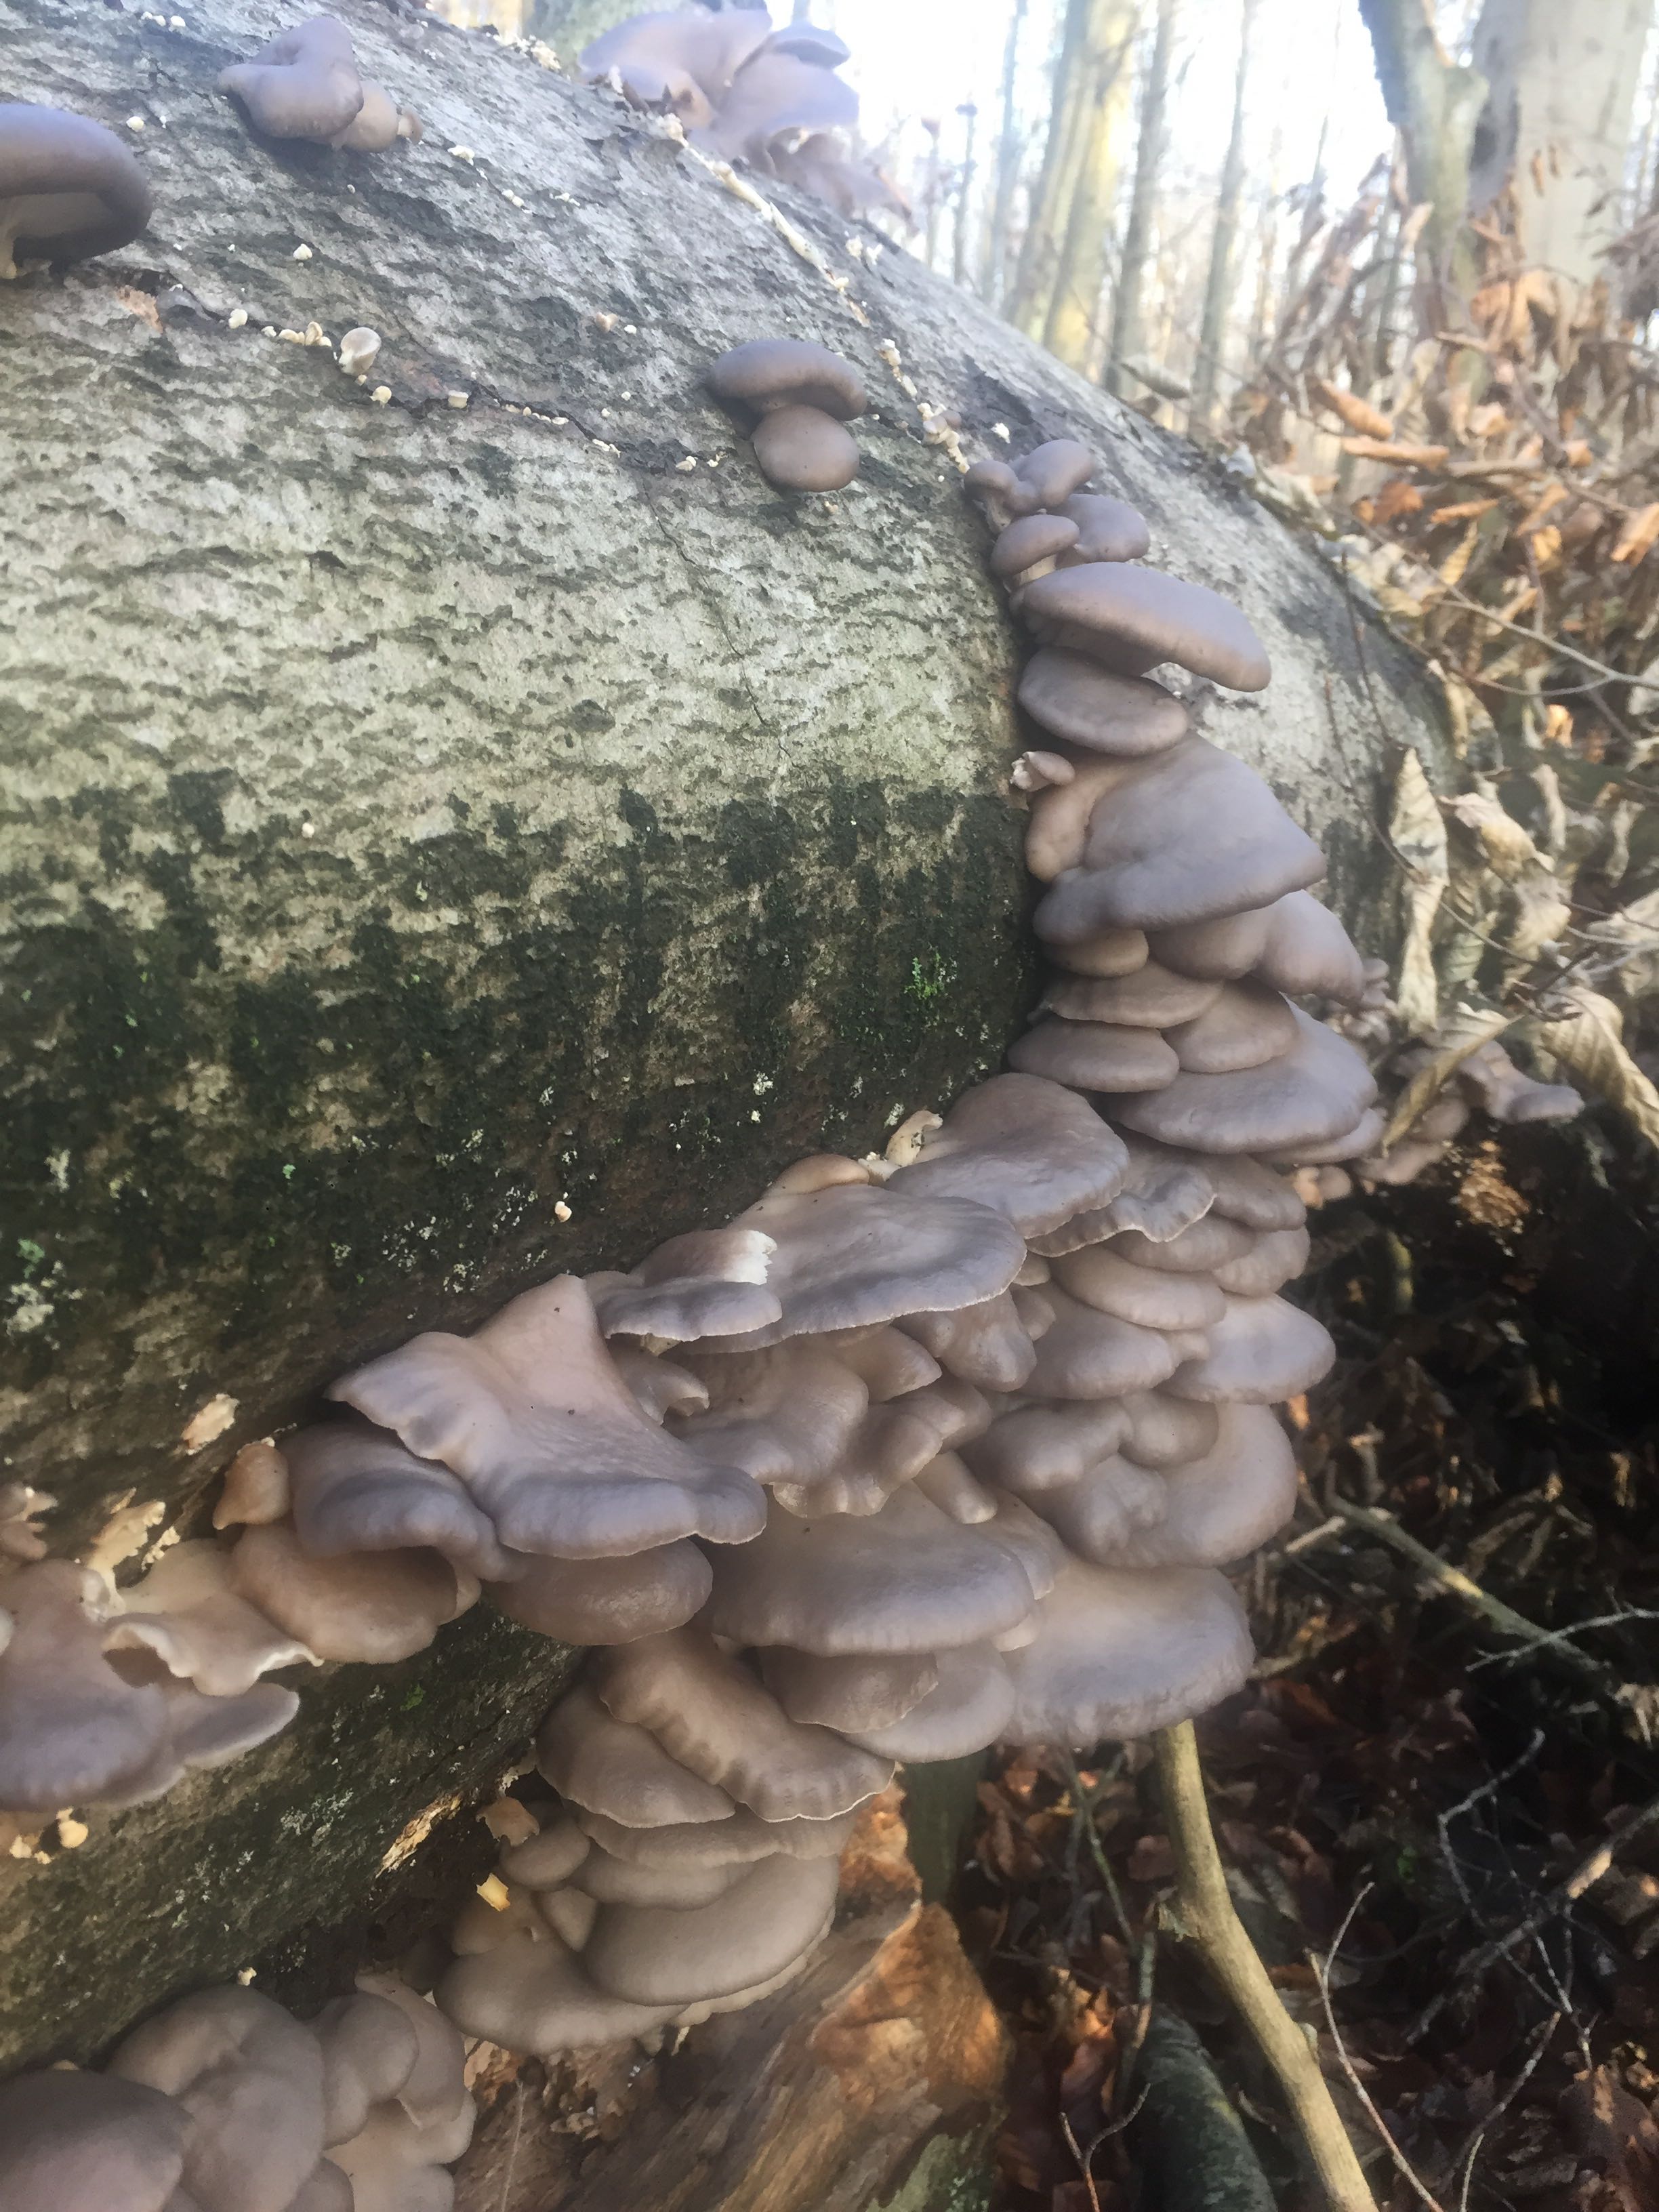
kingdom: Fungi
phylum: Basidiomycota
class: Agaricomycetes
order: Agaricales
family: Pleurotaceae
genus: Pleurotus
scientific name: Pleurotus ostreatus
